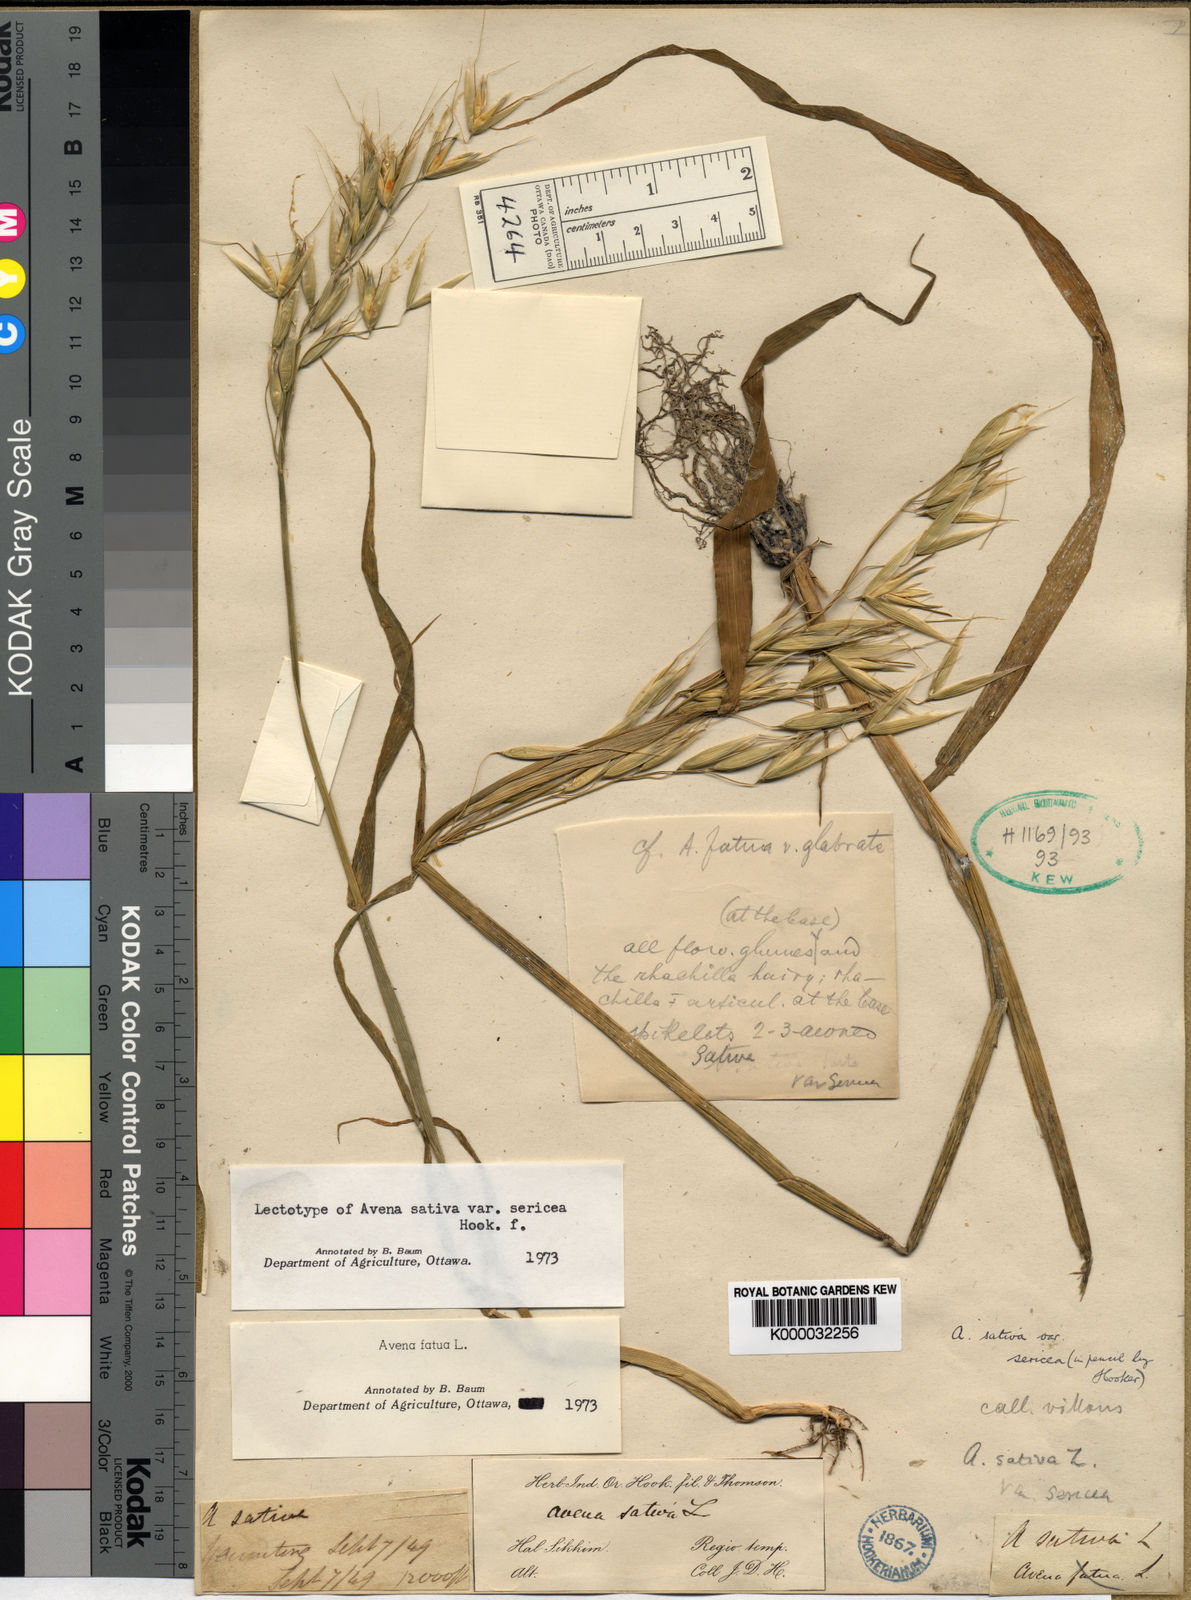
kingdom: Plantae
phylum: Tracheophyta
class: Liliopsida
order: Poales
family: Poaceae
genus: Avena
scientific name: Avena fatua
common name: Wild oat
